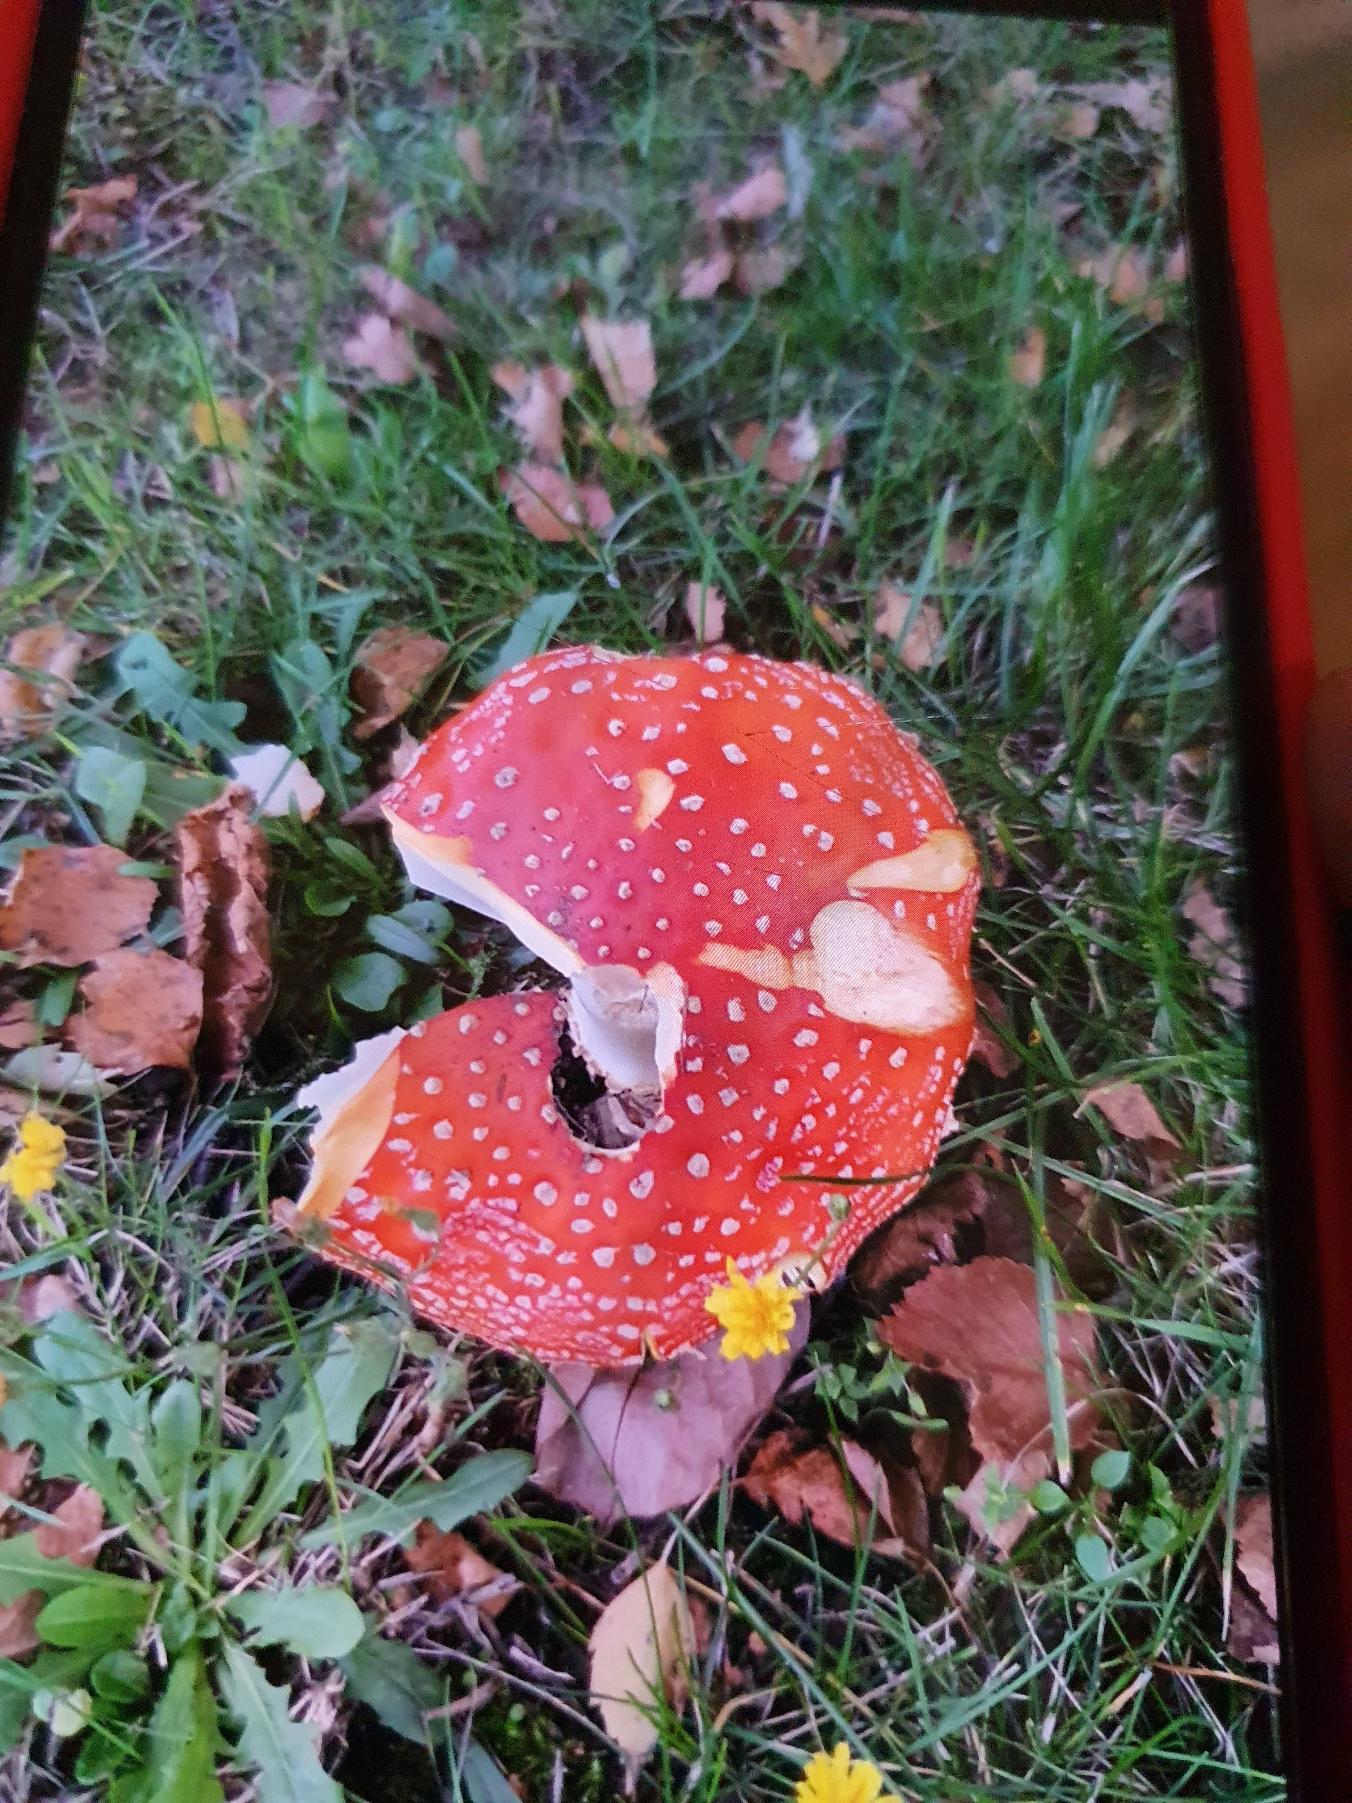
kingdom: Fungi
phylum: Basidiomycota
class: Agaricomycetes
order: Agaricales
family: Amanitaceae
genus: Amanita
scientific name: Amanita muscaria
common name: Rød fluesvamp
